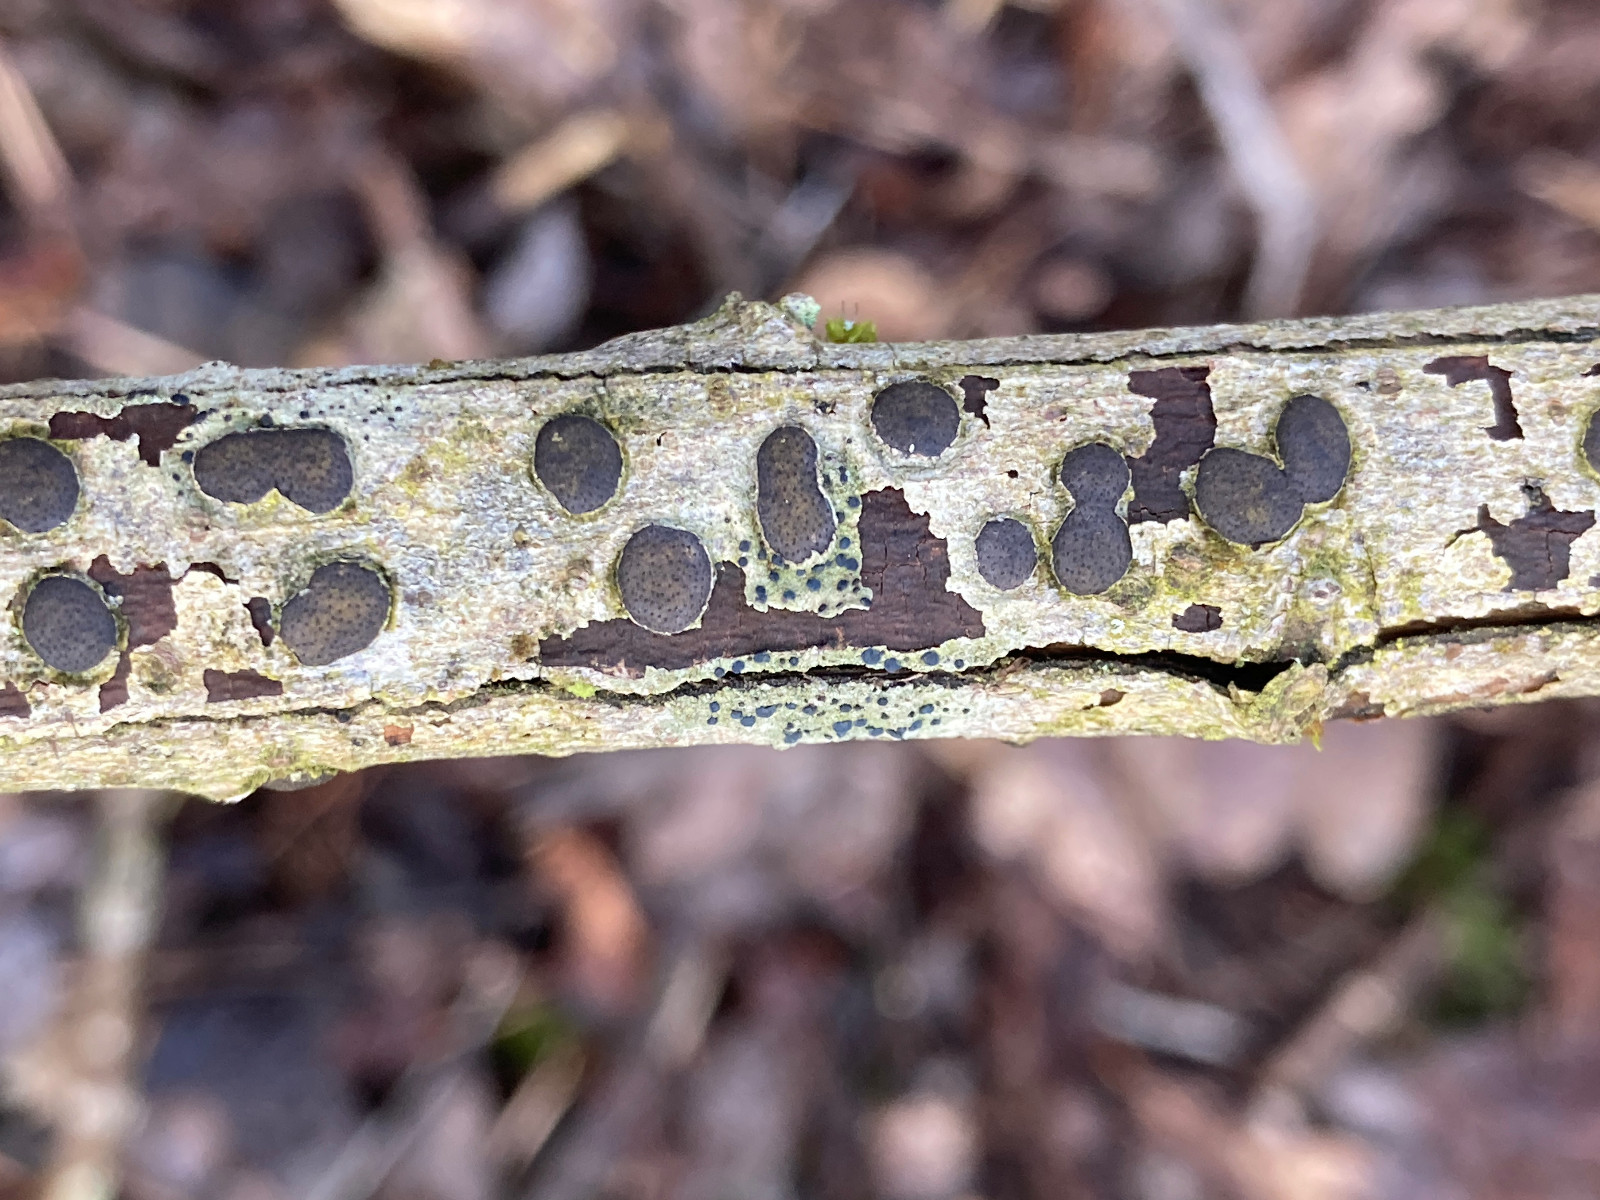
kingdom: Fungi
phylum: Ascomycota
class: Sordariomycetes
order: Xylariales
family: Diatrypaceae
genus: Diatrype
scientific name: Diatrype bullata
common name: pile-kulskorpe
